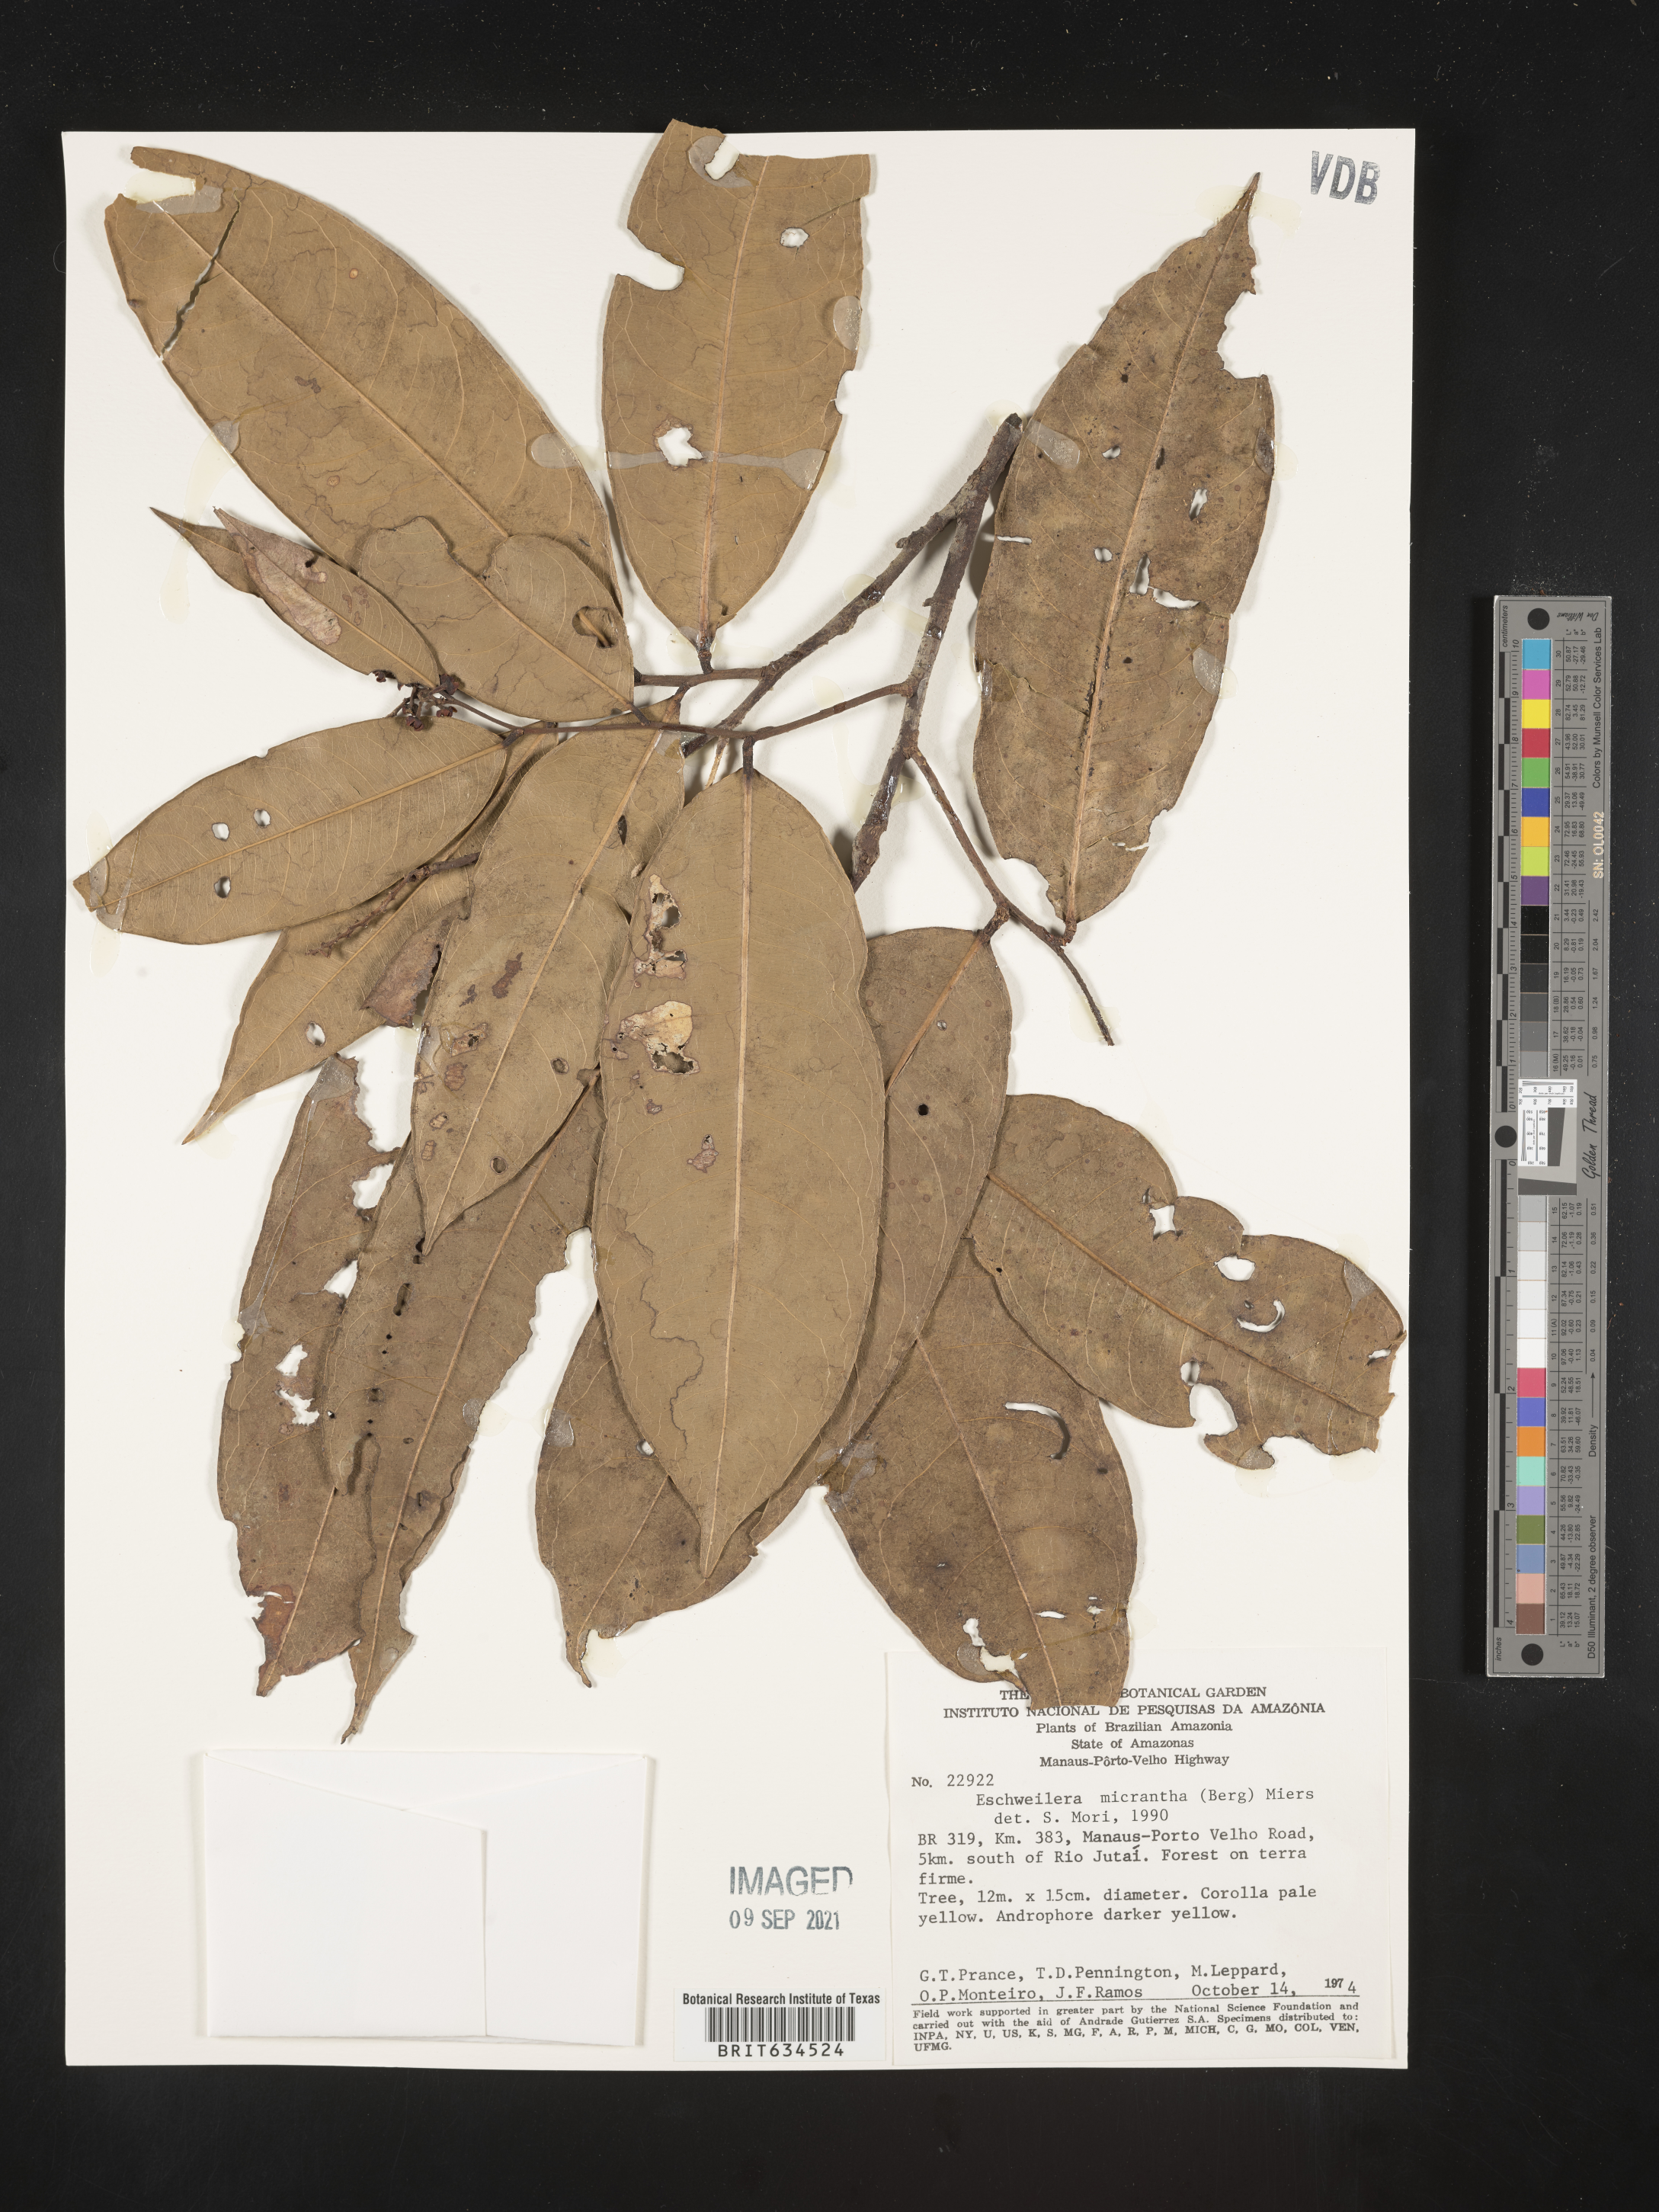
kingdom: Plantae
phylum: Tracheophyta
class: Magnoliopsida
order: Ericales
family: Lecythidaceae
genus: Eschweilera
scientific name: Eschweilera
